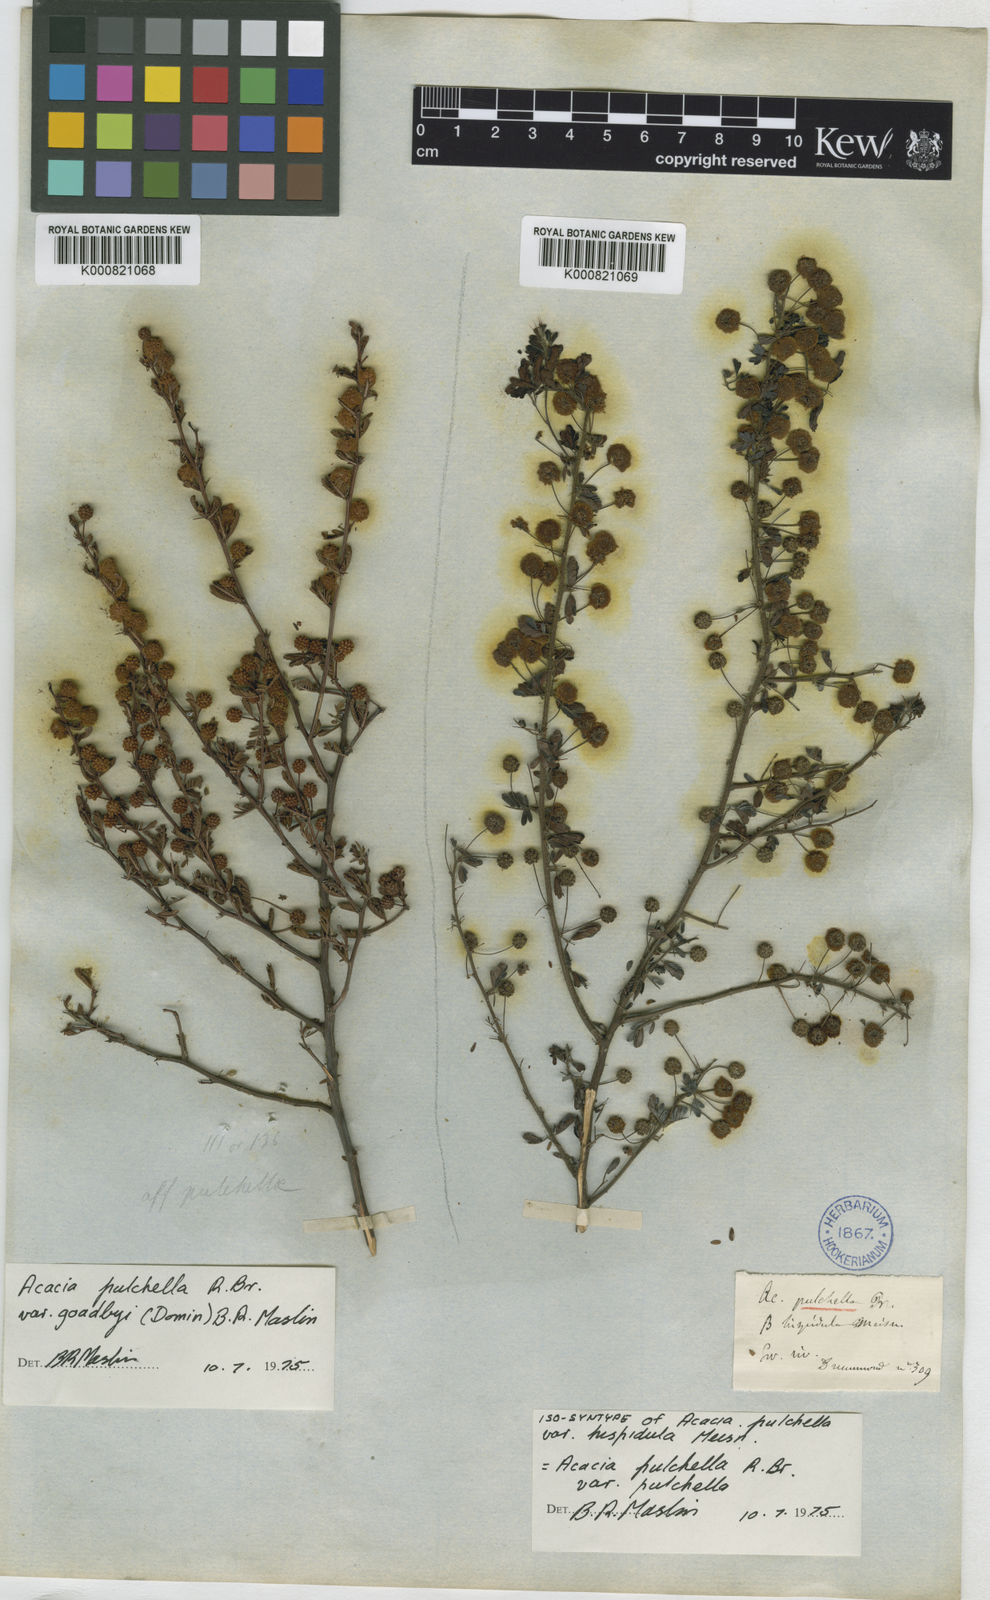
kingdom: Plantae
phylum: Tracheophyta
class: Magnoliopsida
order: Fabales
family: Fabaceae
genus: Acacia
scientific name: Acacia pulchella
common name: Prickly moses
